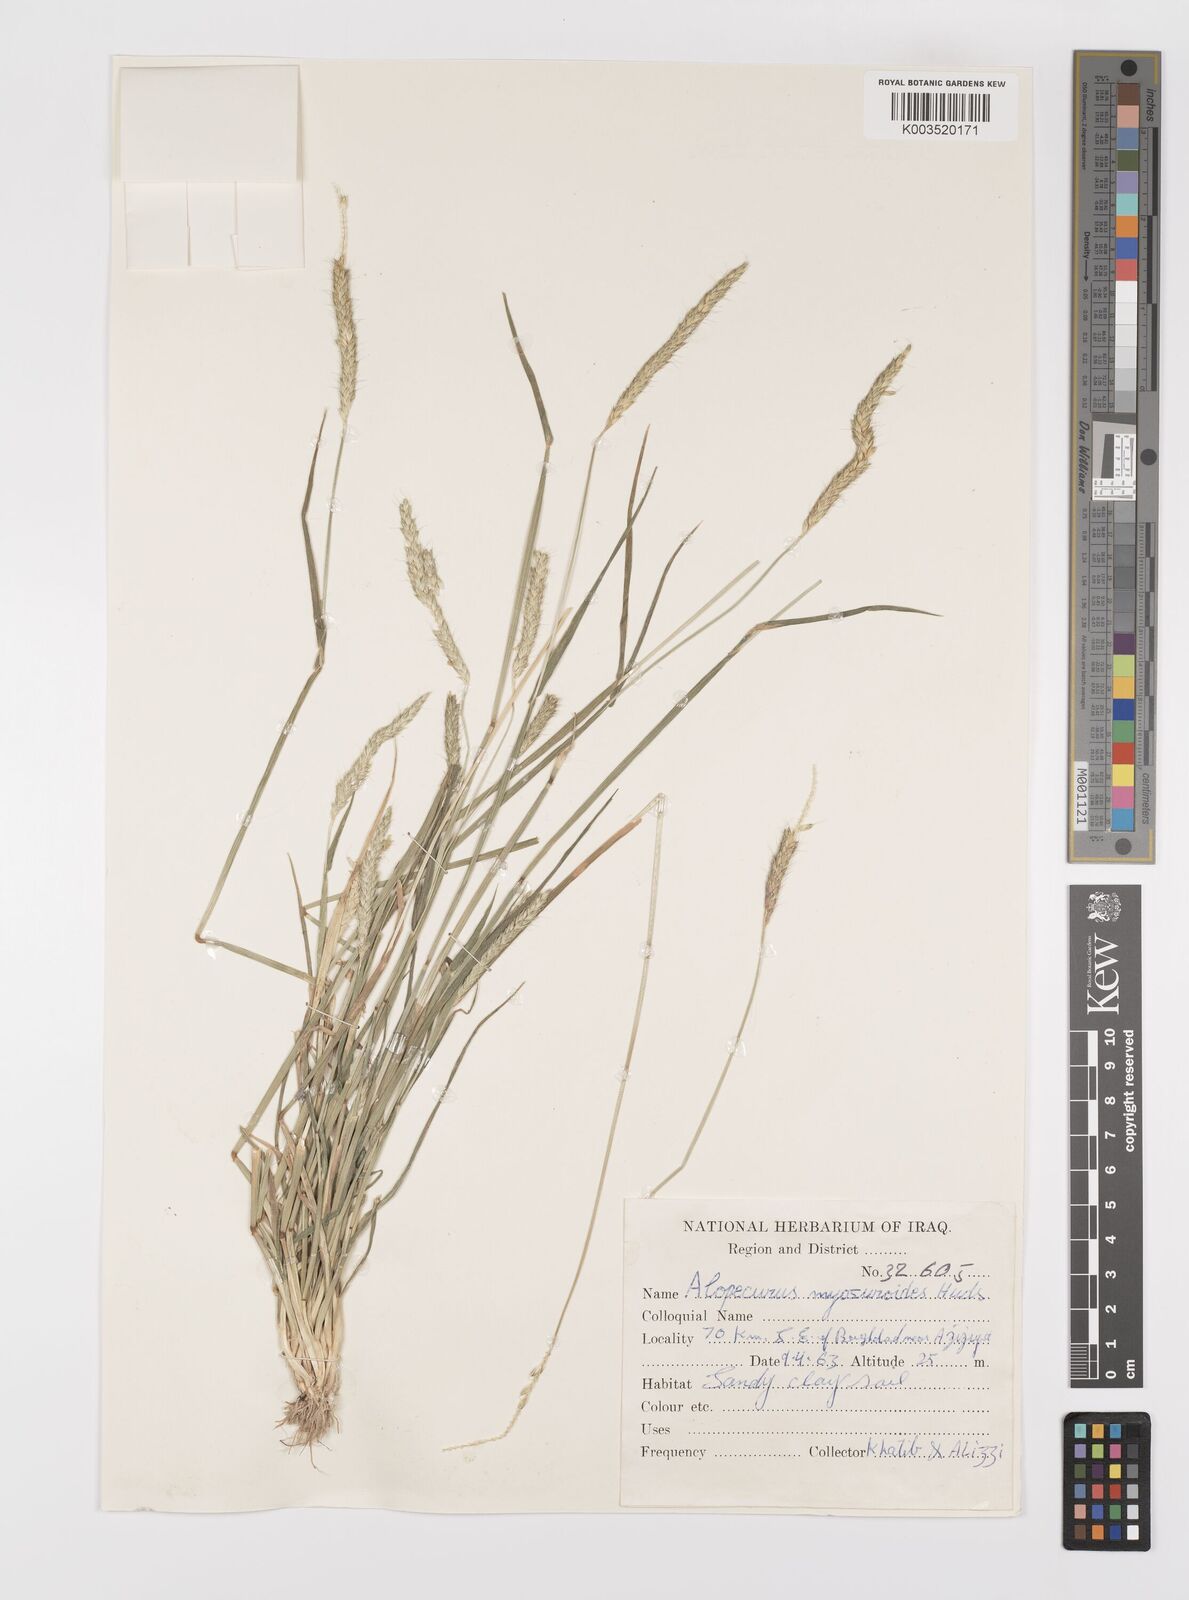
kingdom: Plantae
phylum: Tracheophyta
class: Liliopsida
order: Poales
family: Poaceae
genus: Alopecurus
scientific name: Alopecurus myosuroides
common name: Black-grass
